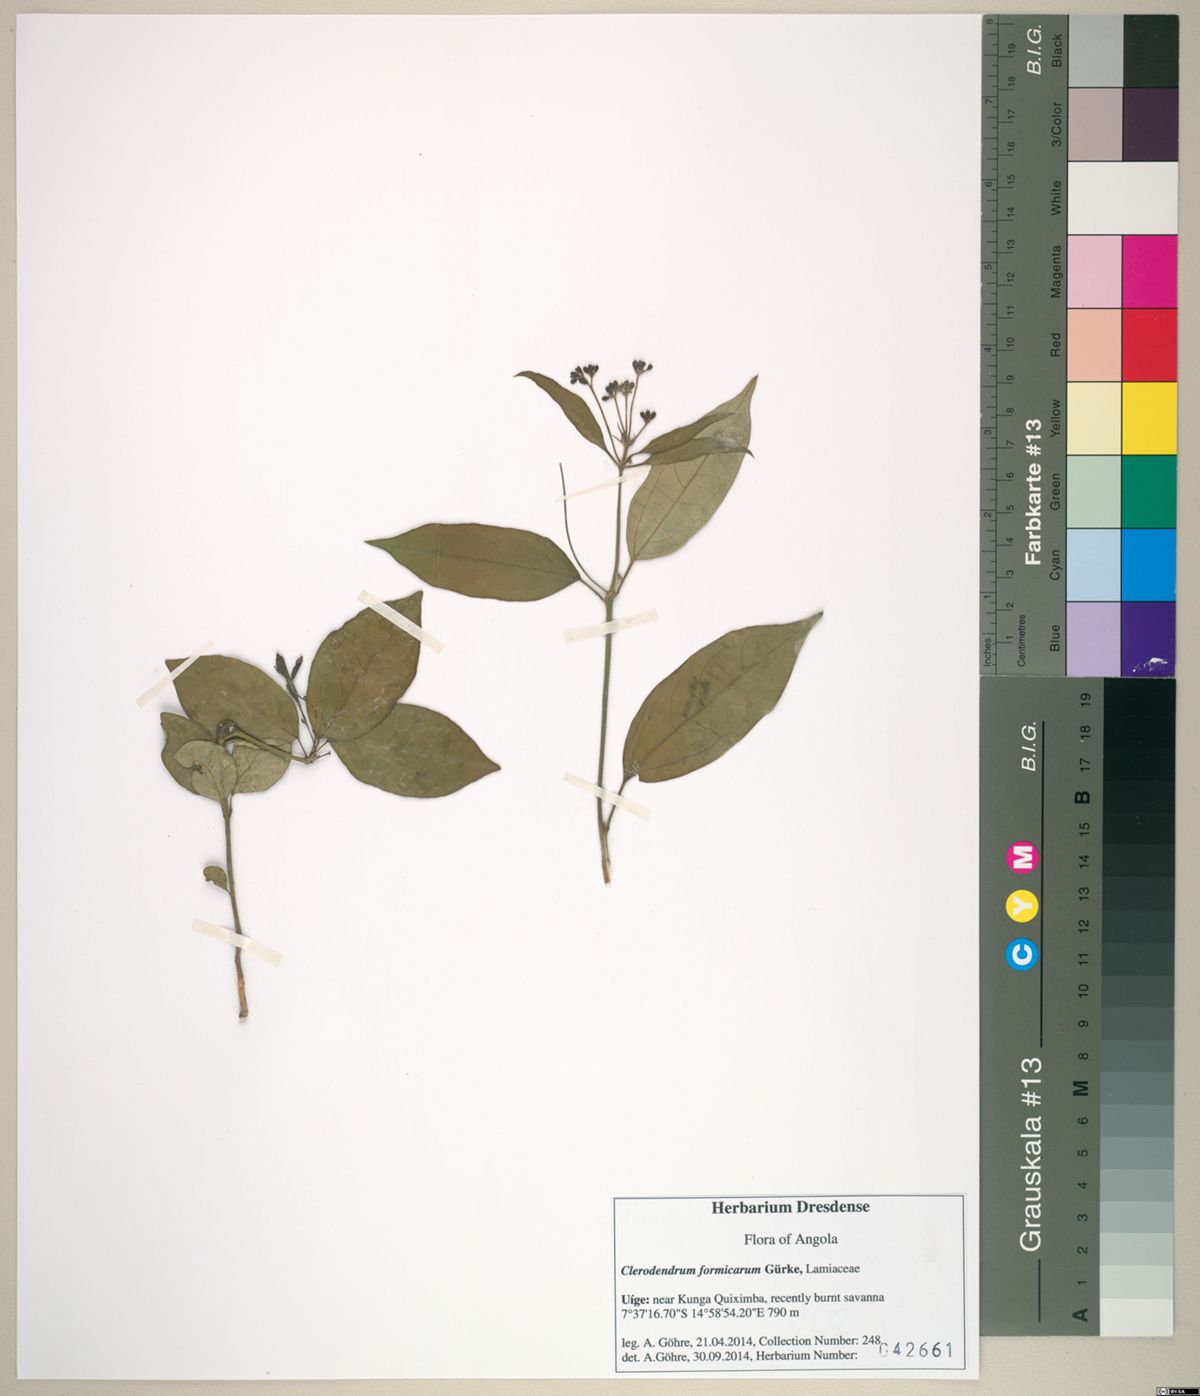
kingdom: Plantae
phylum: Tracheophyta
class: Magnoliopsida
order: Lamiales
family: Lamiaceae
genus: Clerodendrum
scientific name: Clerodendrum formicarum
